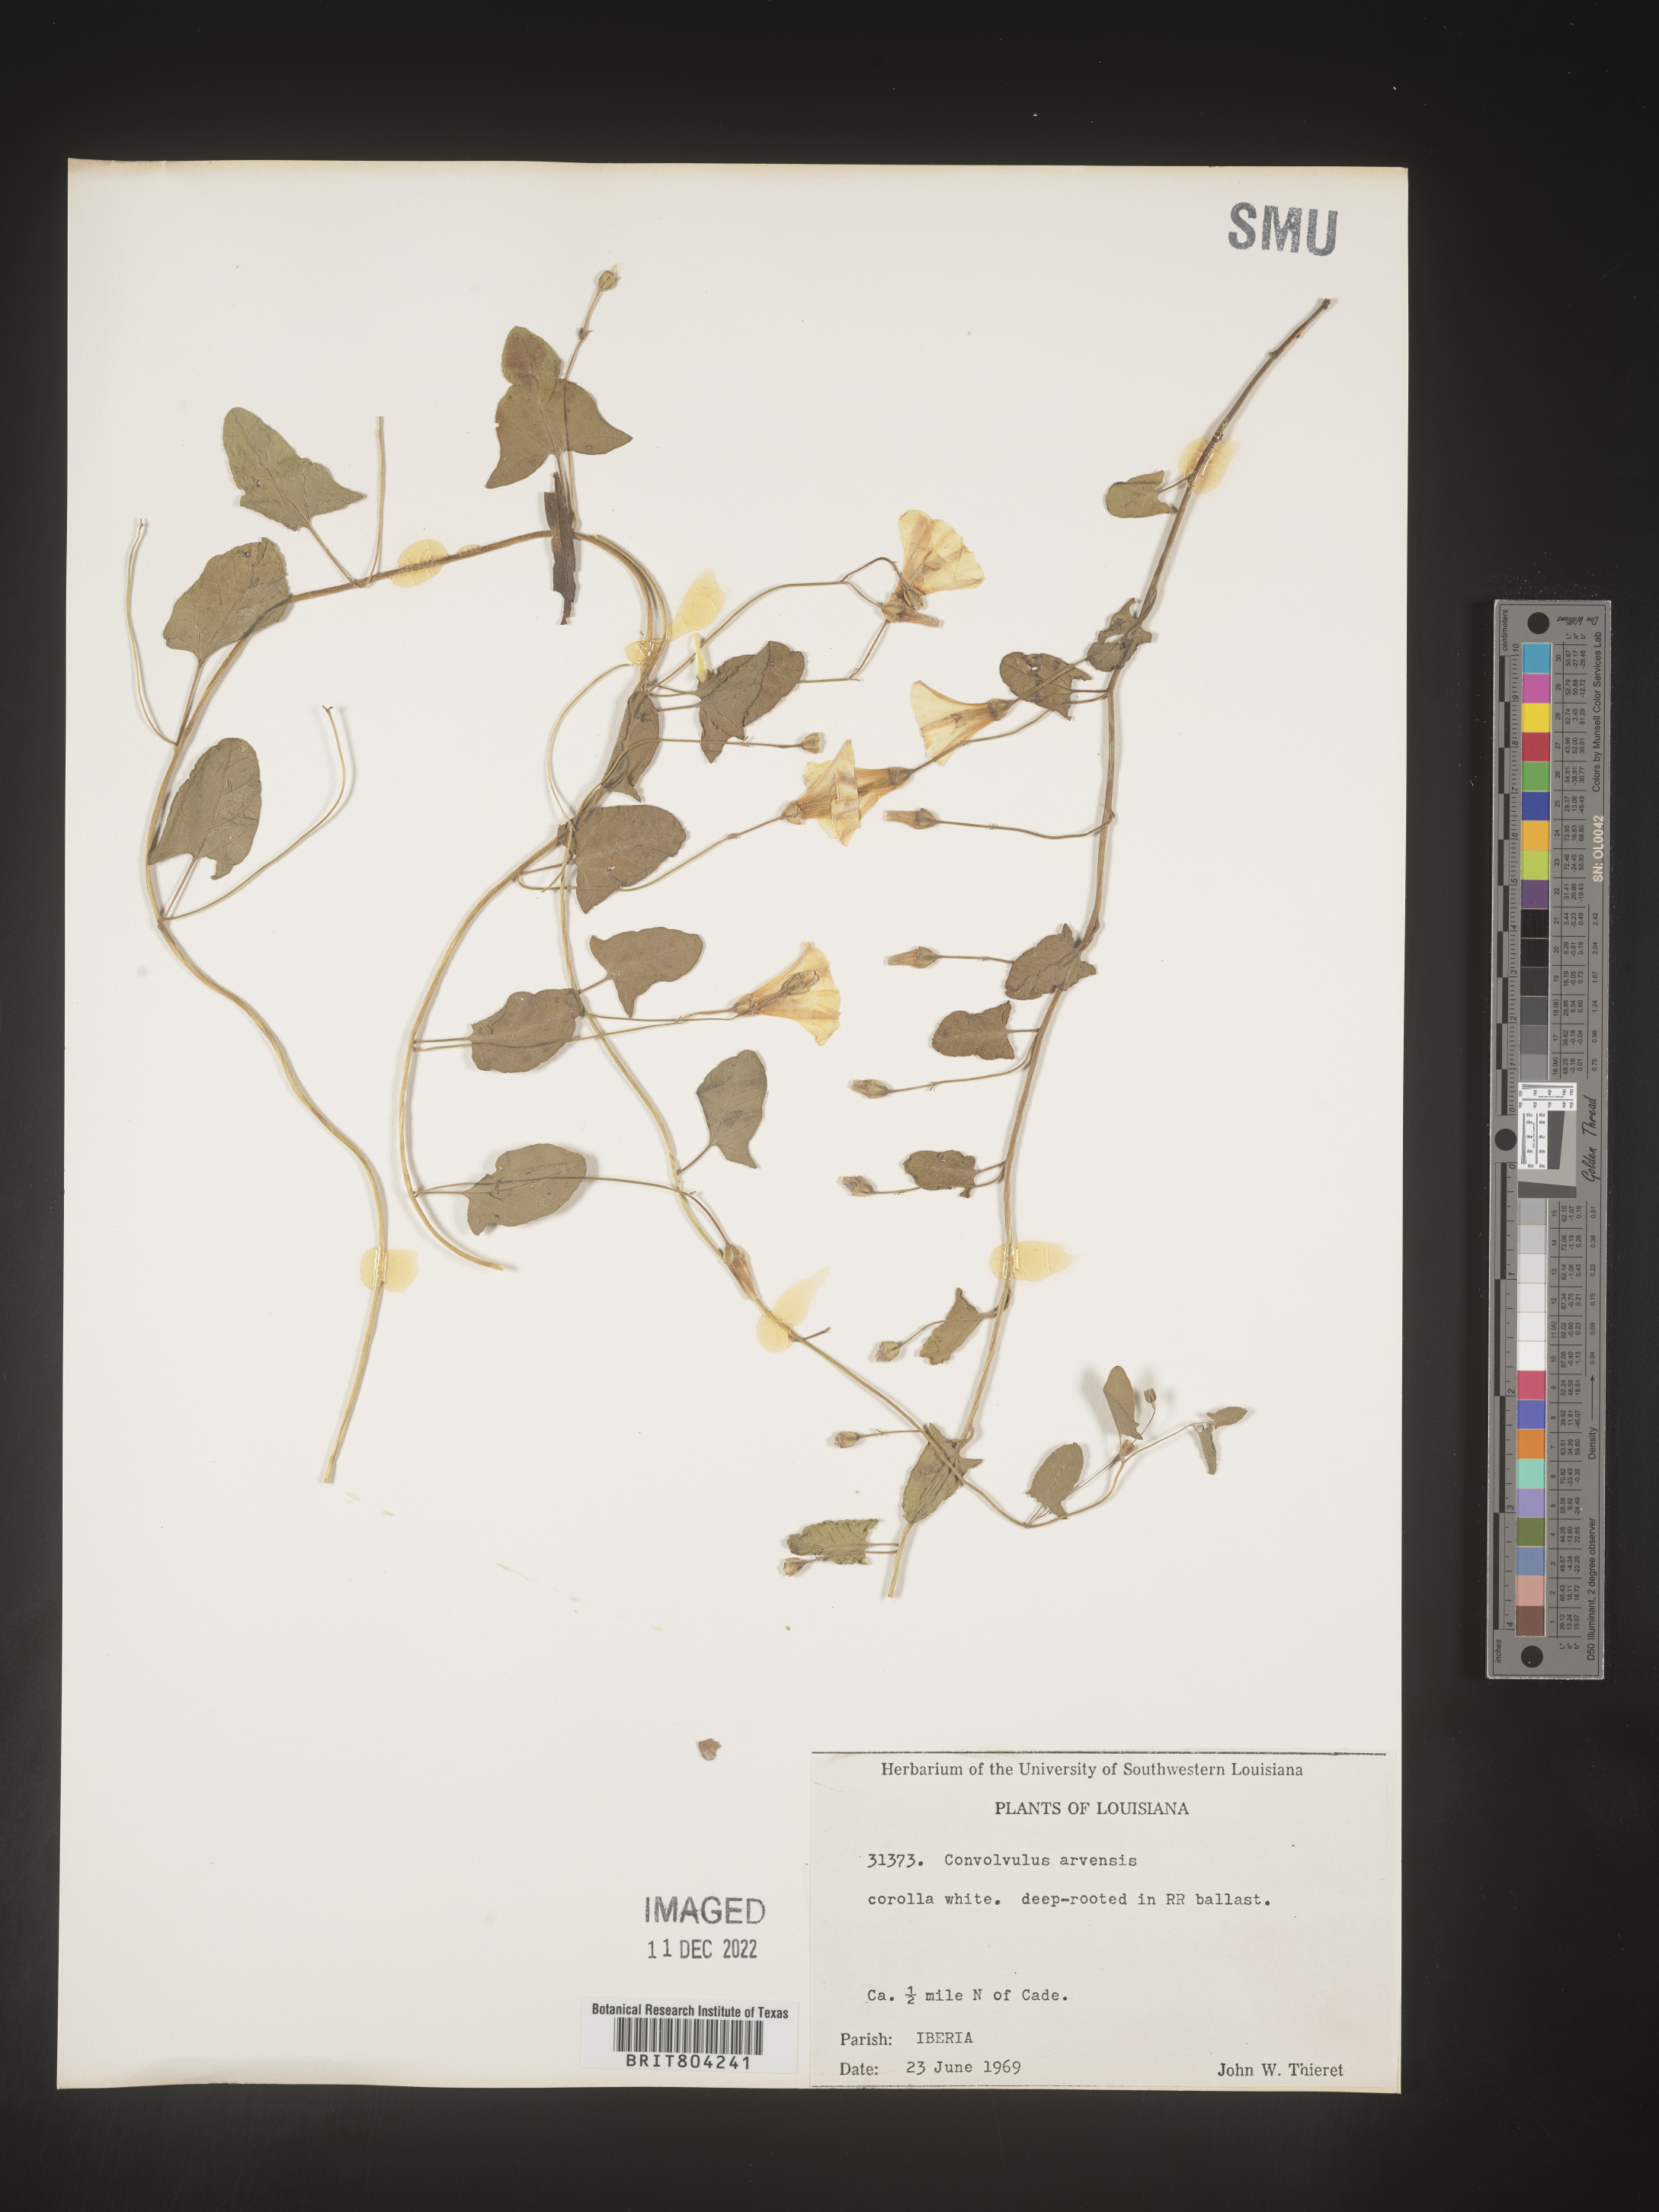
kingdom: Plantae
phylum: Tracheophyta
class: Magnoliopsida
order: Solanales
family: Convolvulaceae
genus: Convolvulus
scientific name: Convolvulus arvensis
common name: Field bindweed
